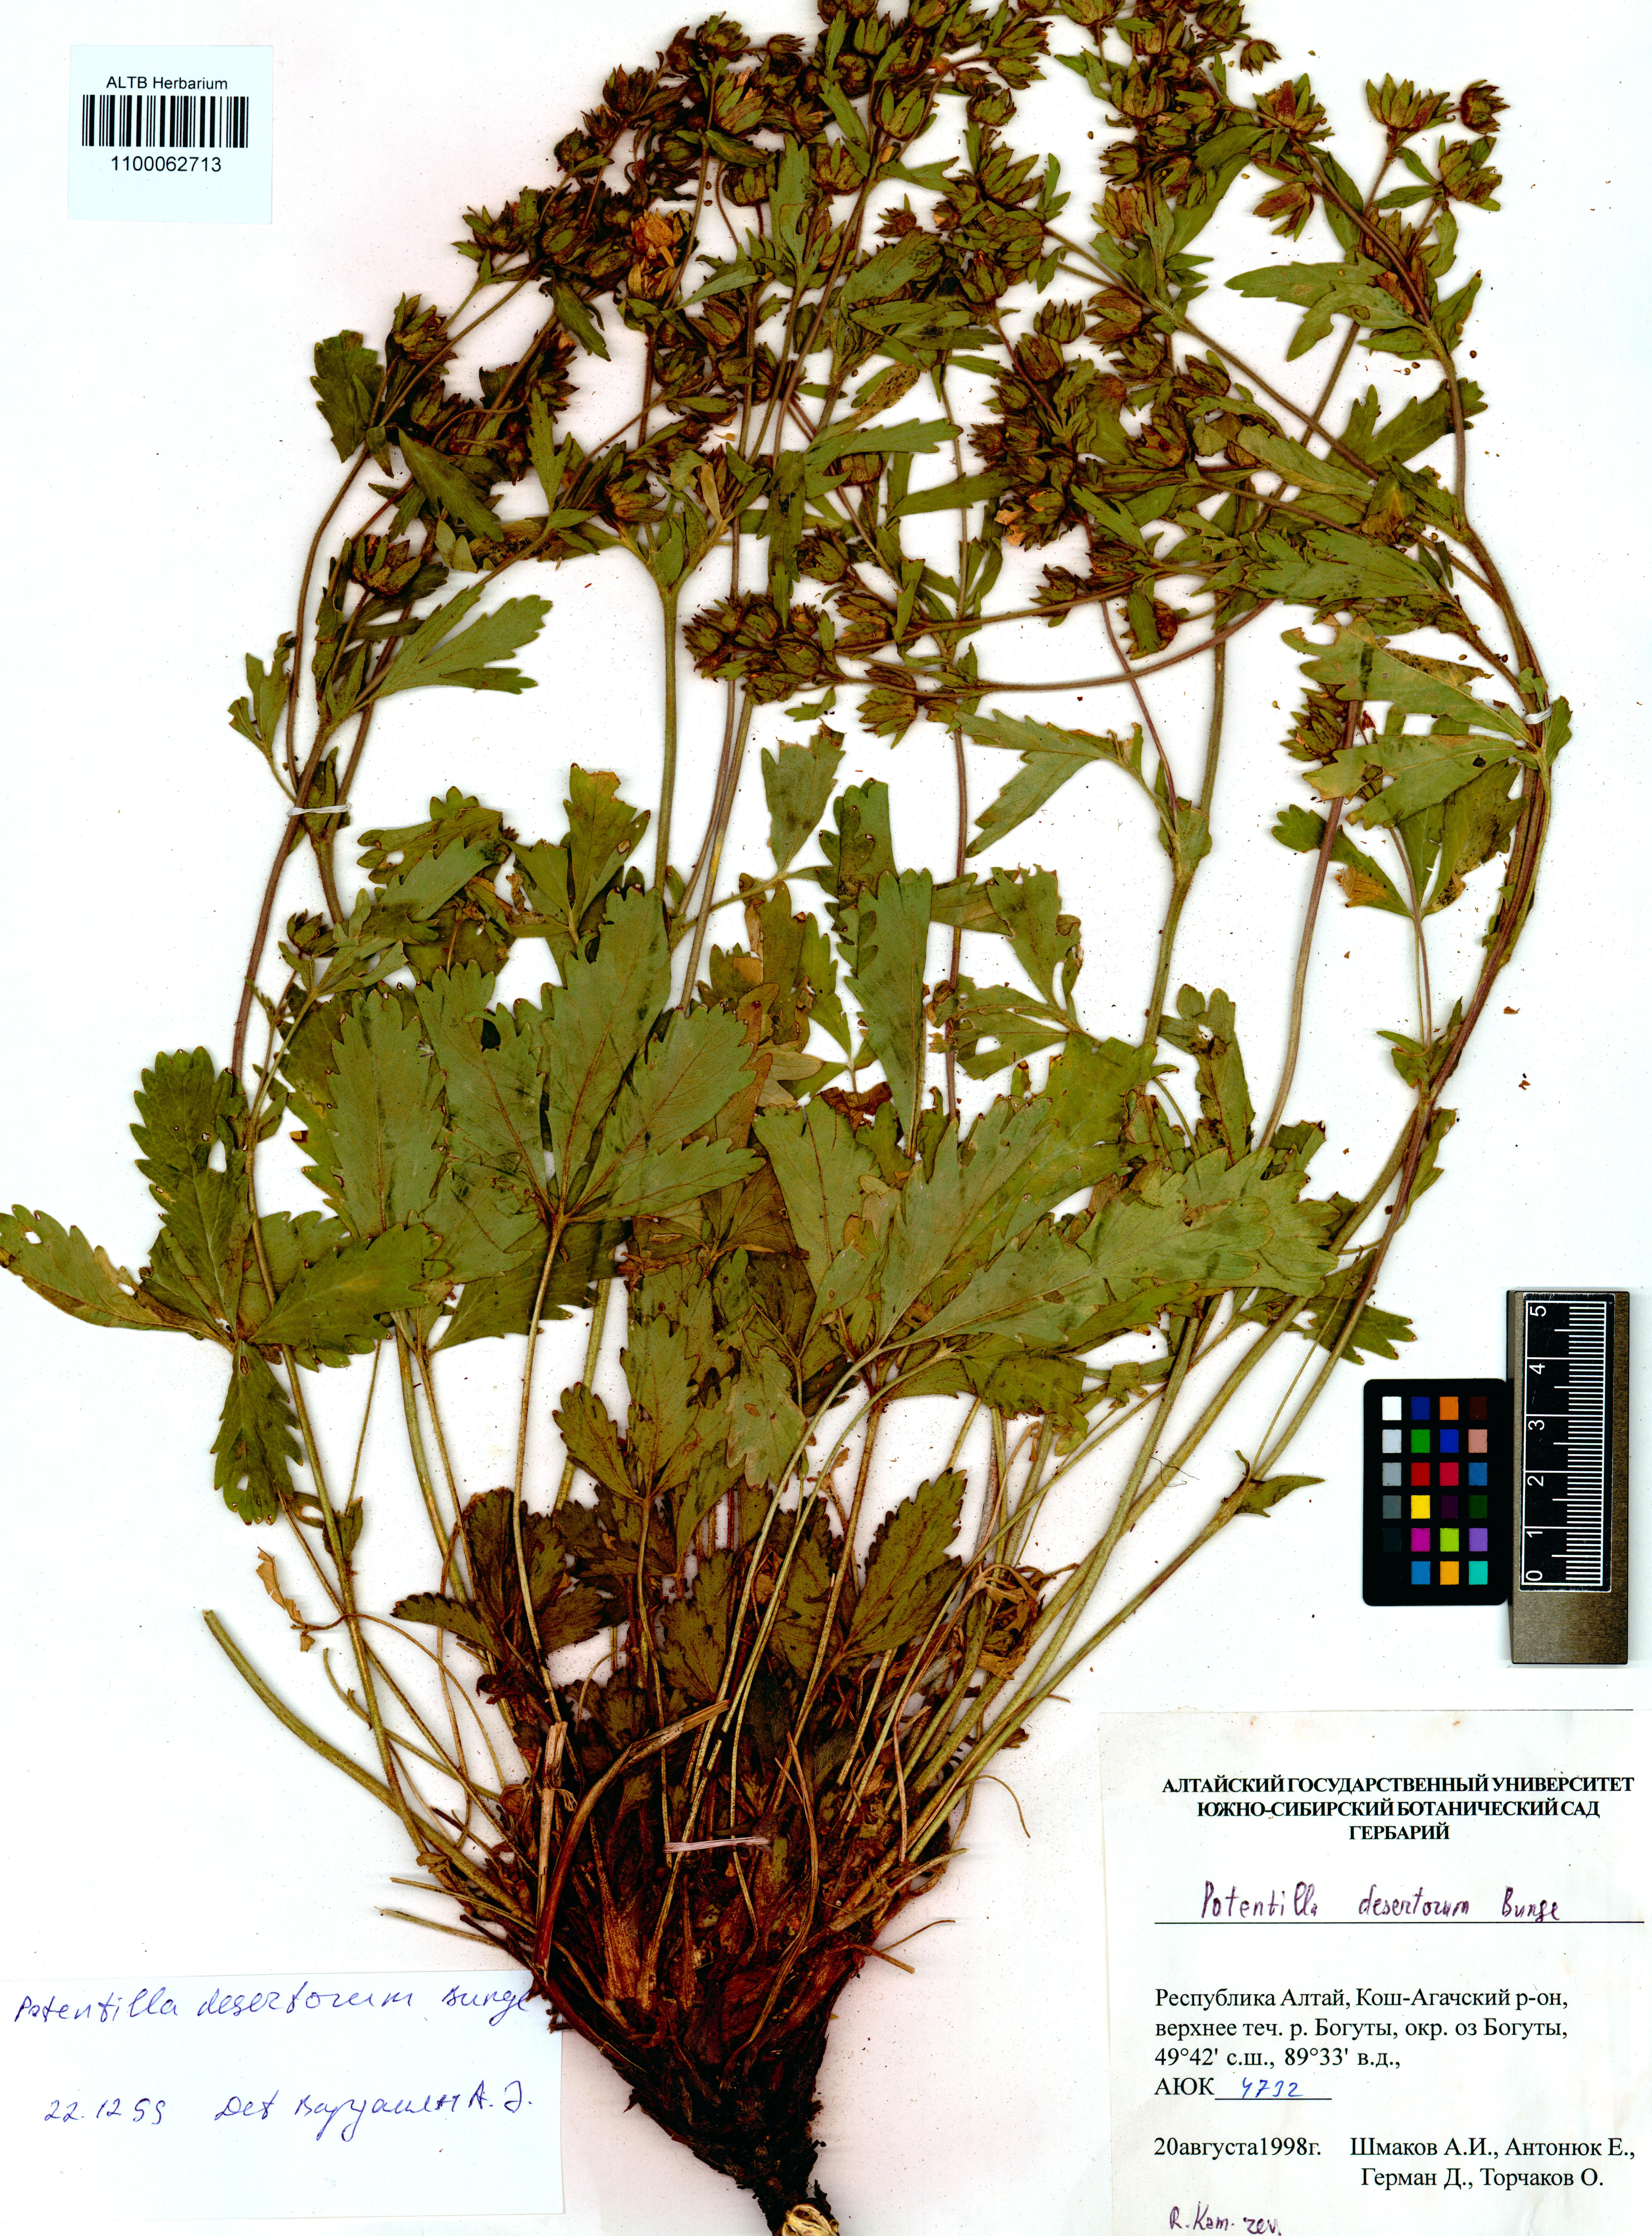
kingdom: Plantae
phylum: Tracheophyta
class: Magnoliopsida
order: Rosales
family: Rosaceae
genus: Potentilla
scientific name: Potentilla desertorum
